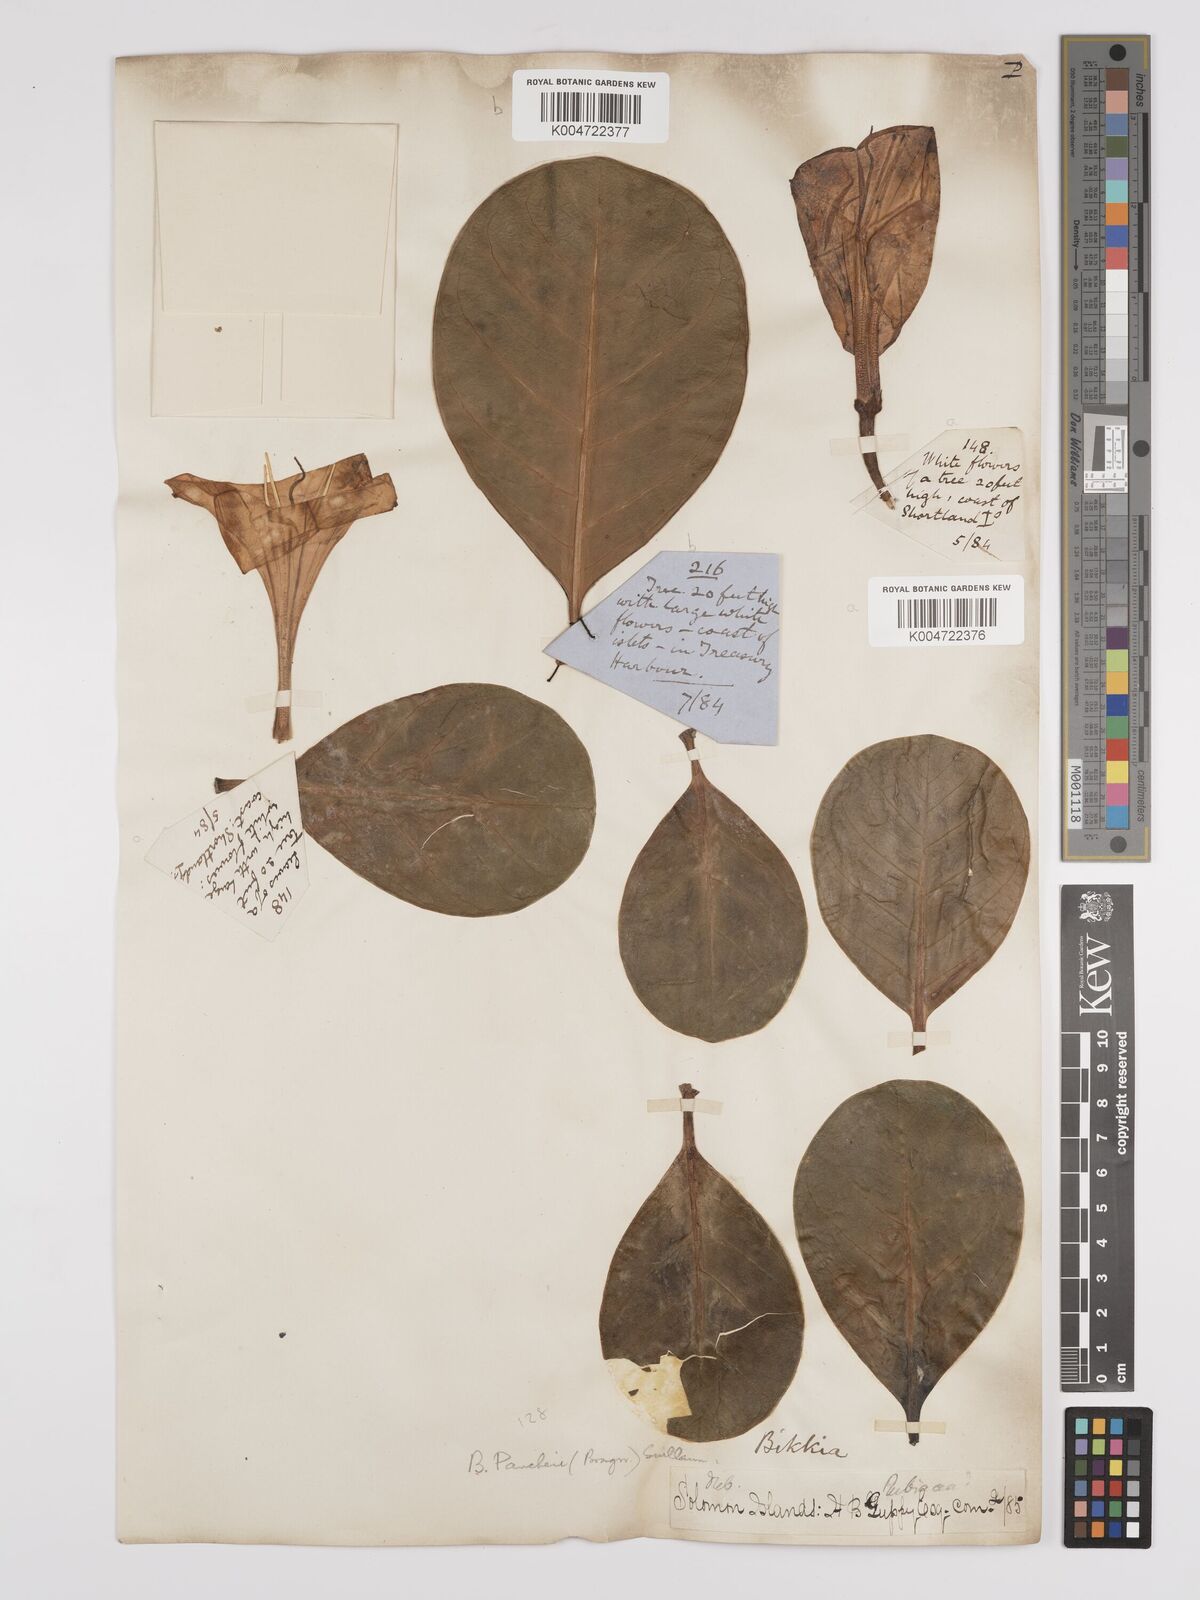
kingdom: Plantae
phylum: Tracheophyta
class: Magnoliopsida
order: Gentianales
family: Rubiaceae
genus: Bikkia
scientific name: Bikkia
